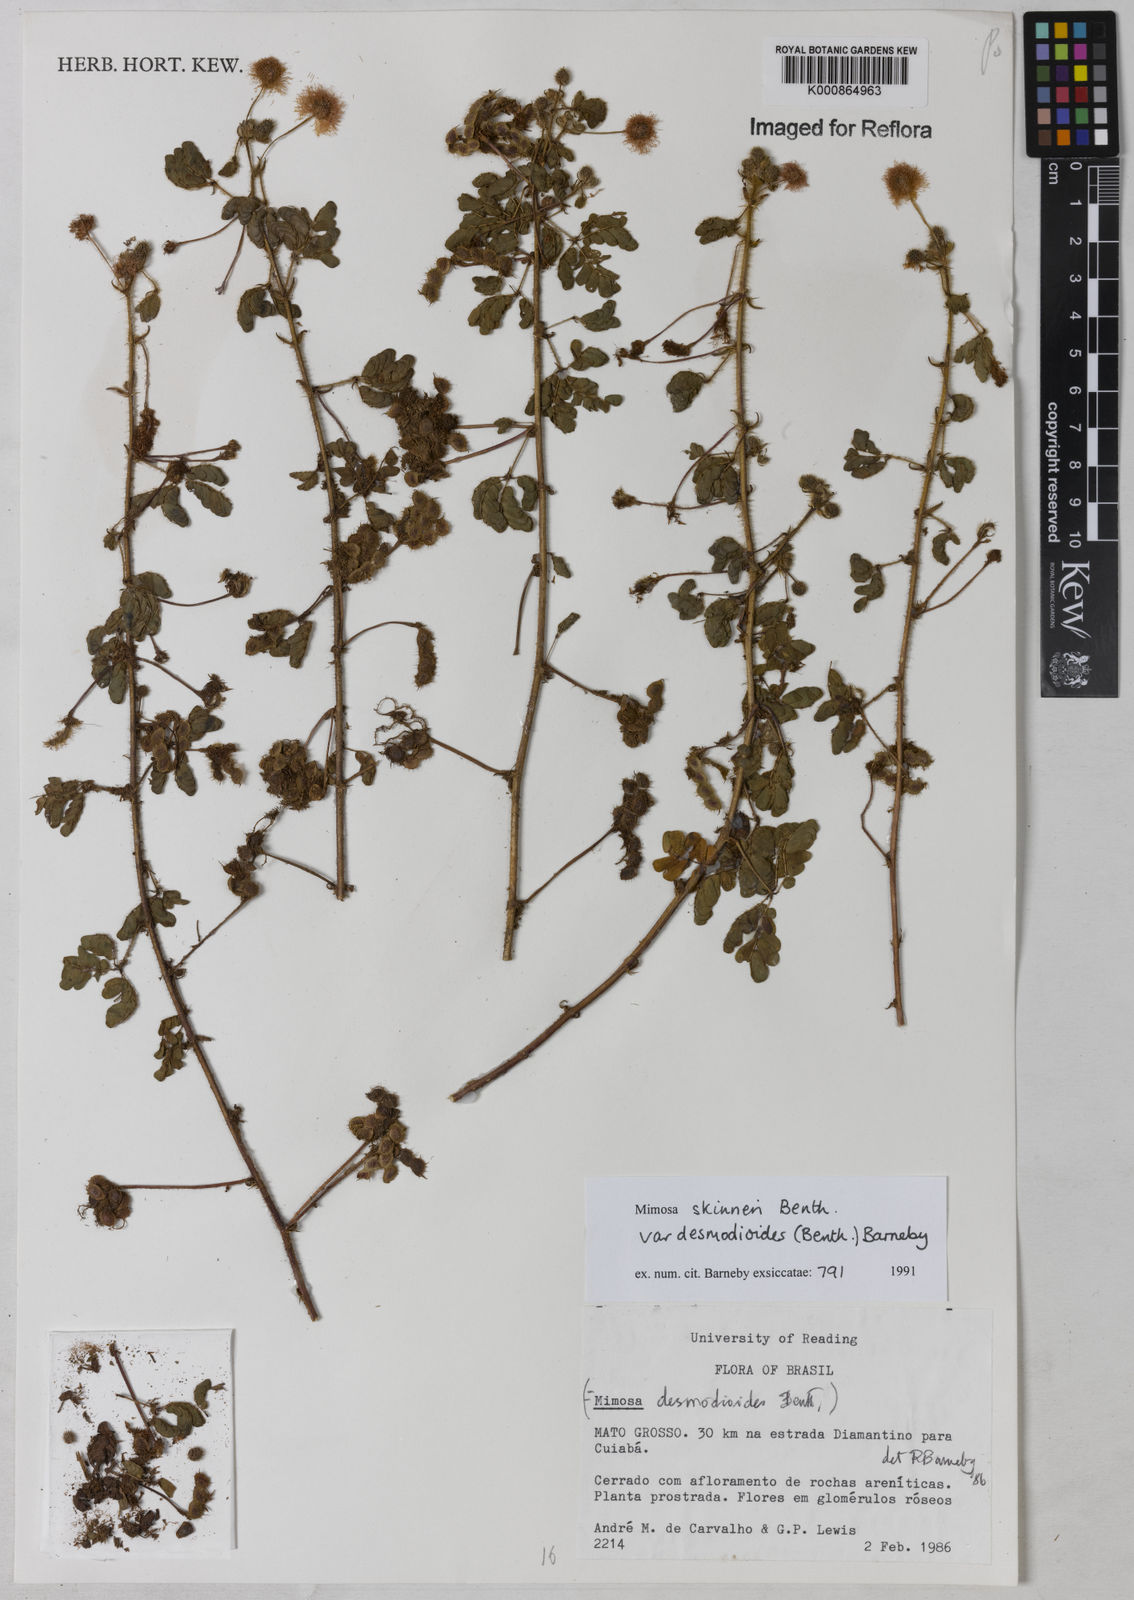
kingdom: Plantae
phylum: Tracheophyta
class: Magnoliopsida
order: Fabales
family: Fabaceae
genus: Mimosa
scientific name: Mimosa skinneri
